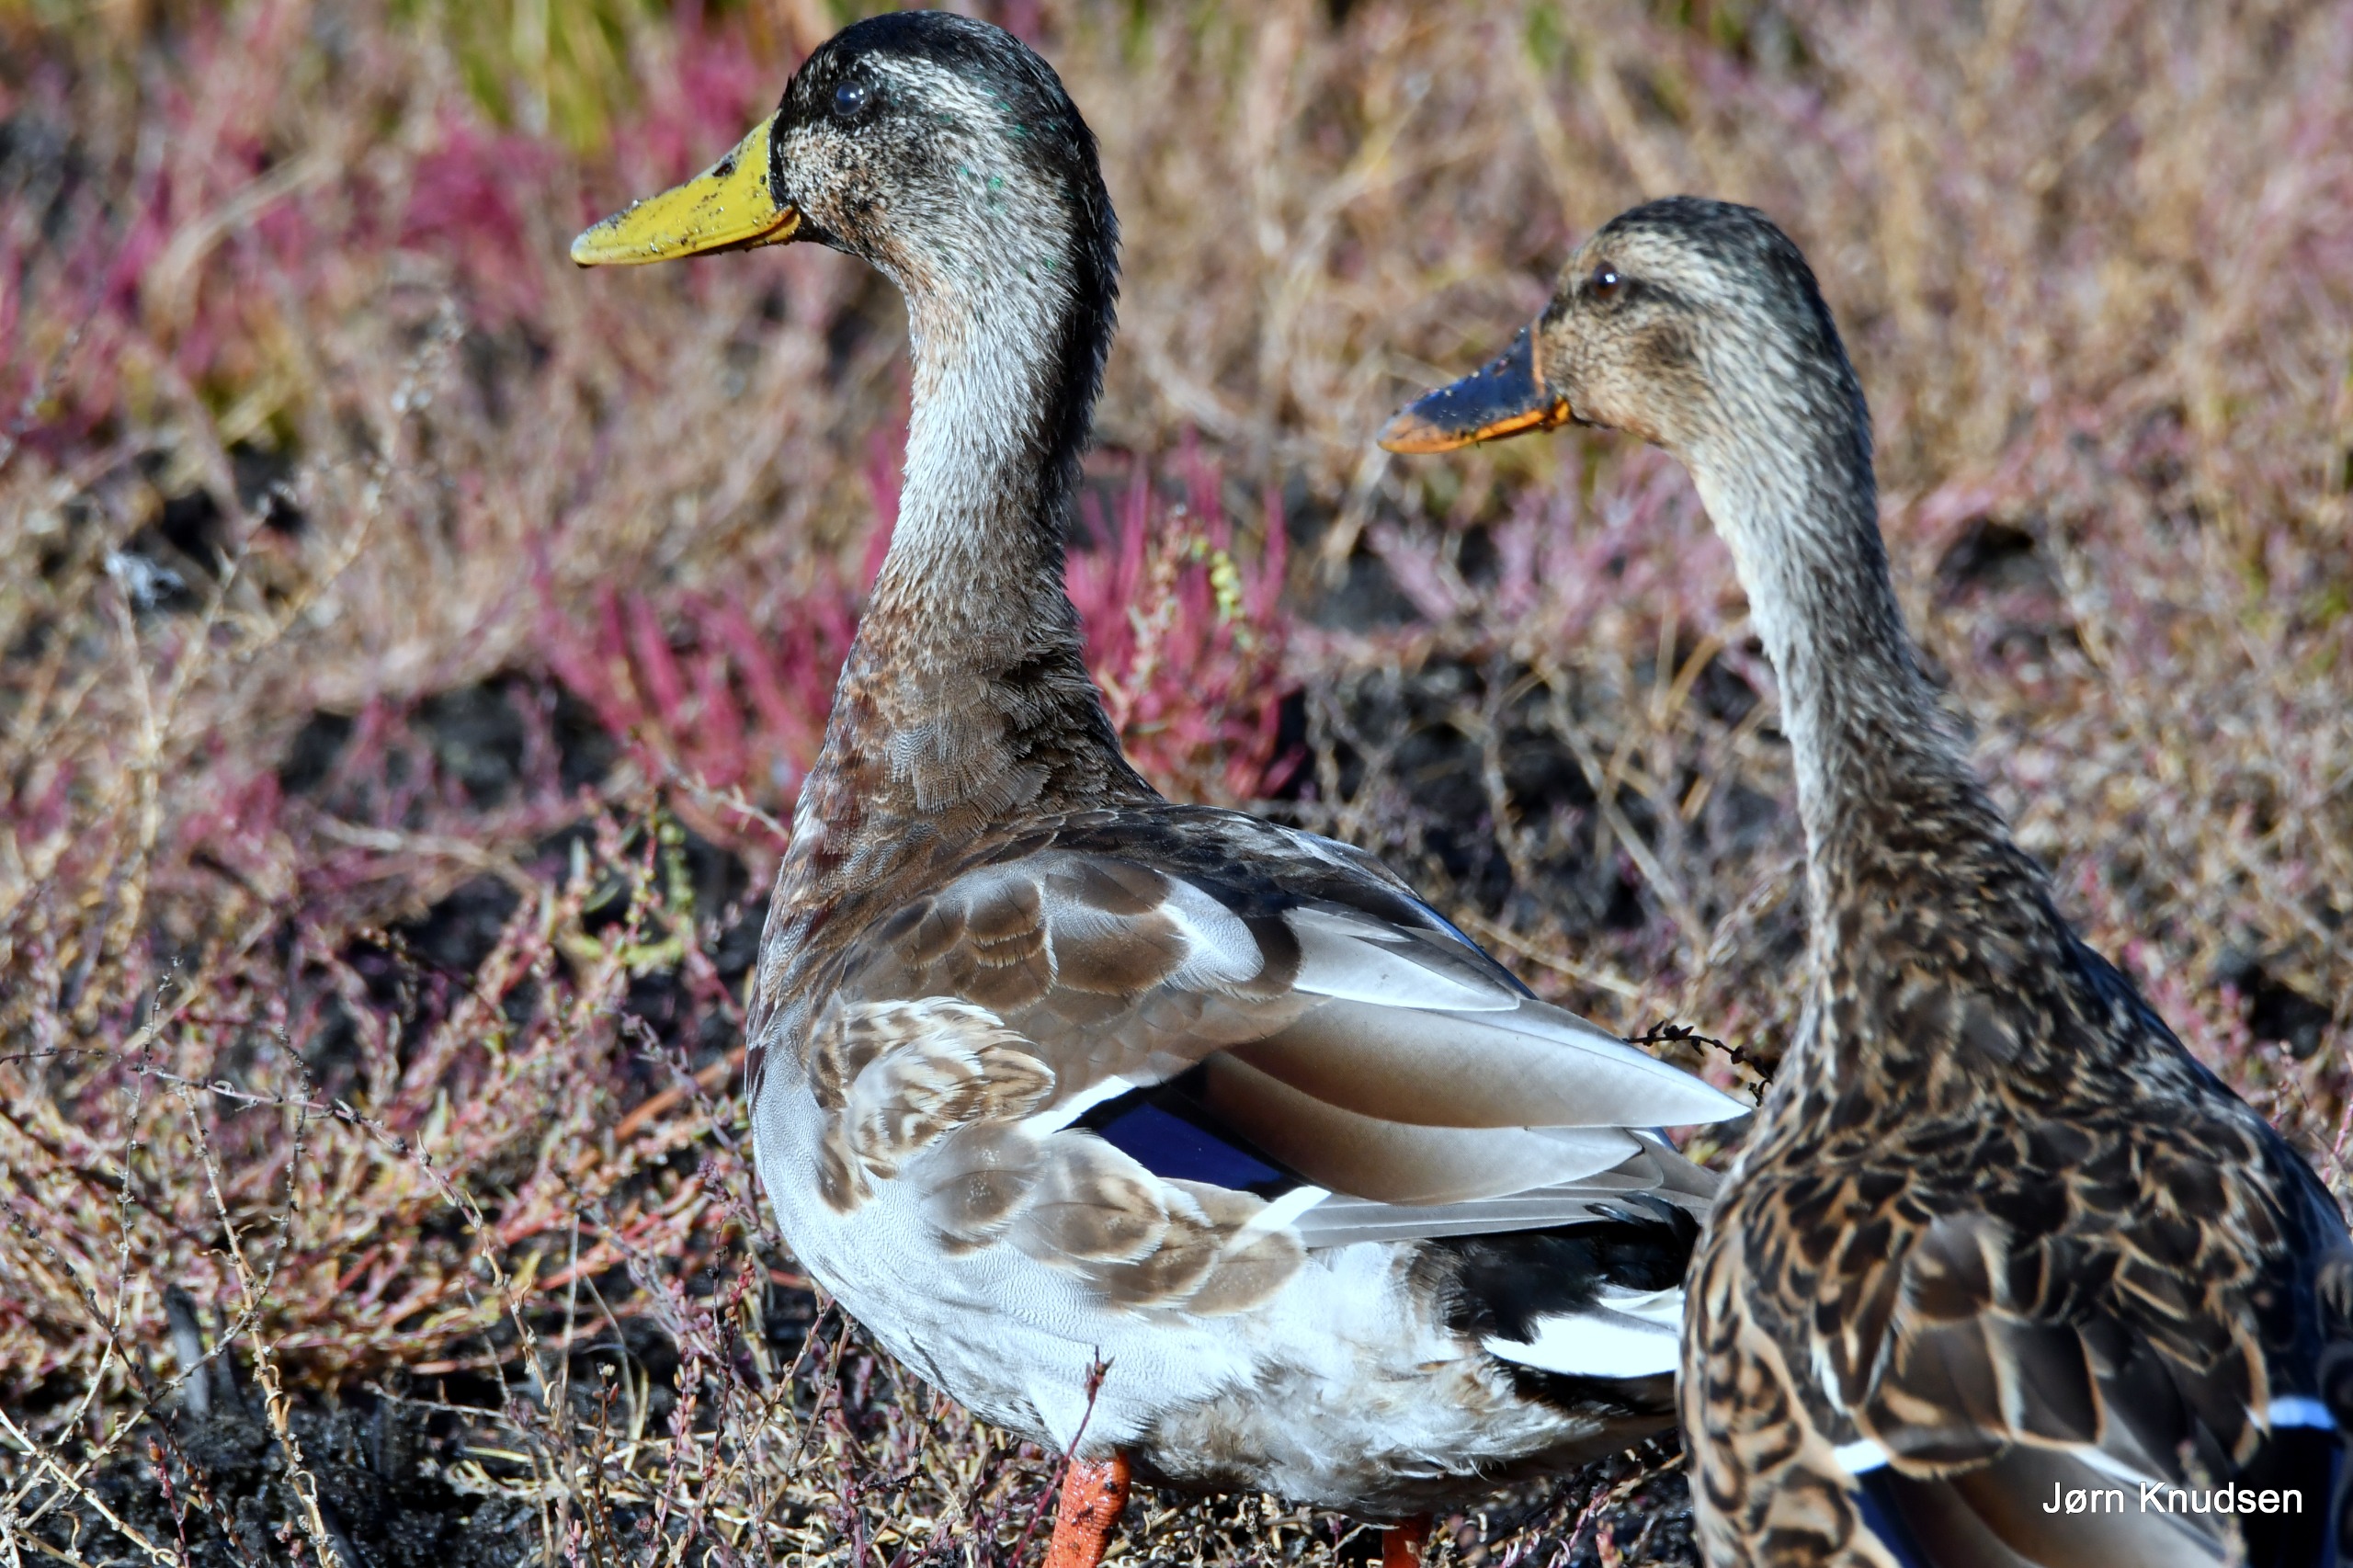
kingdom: Animalia
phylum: Chordata
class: Aves
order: Anseriformes
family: Anatidae
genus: Anas
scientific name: Anas platyrhynchos
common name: Gråand
